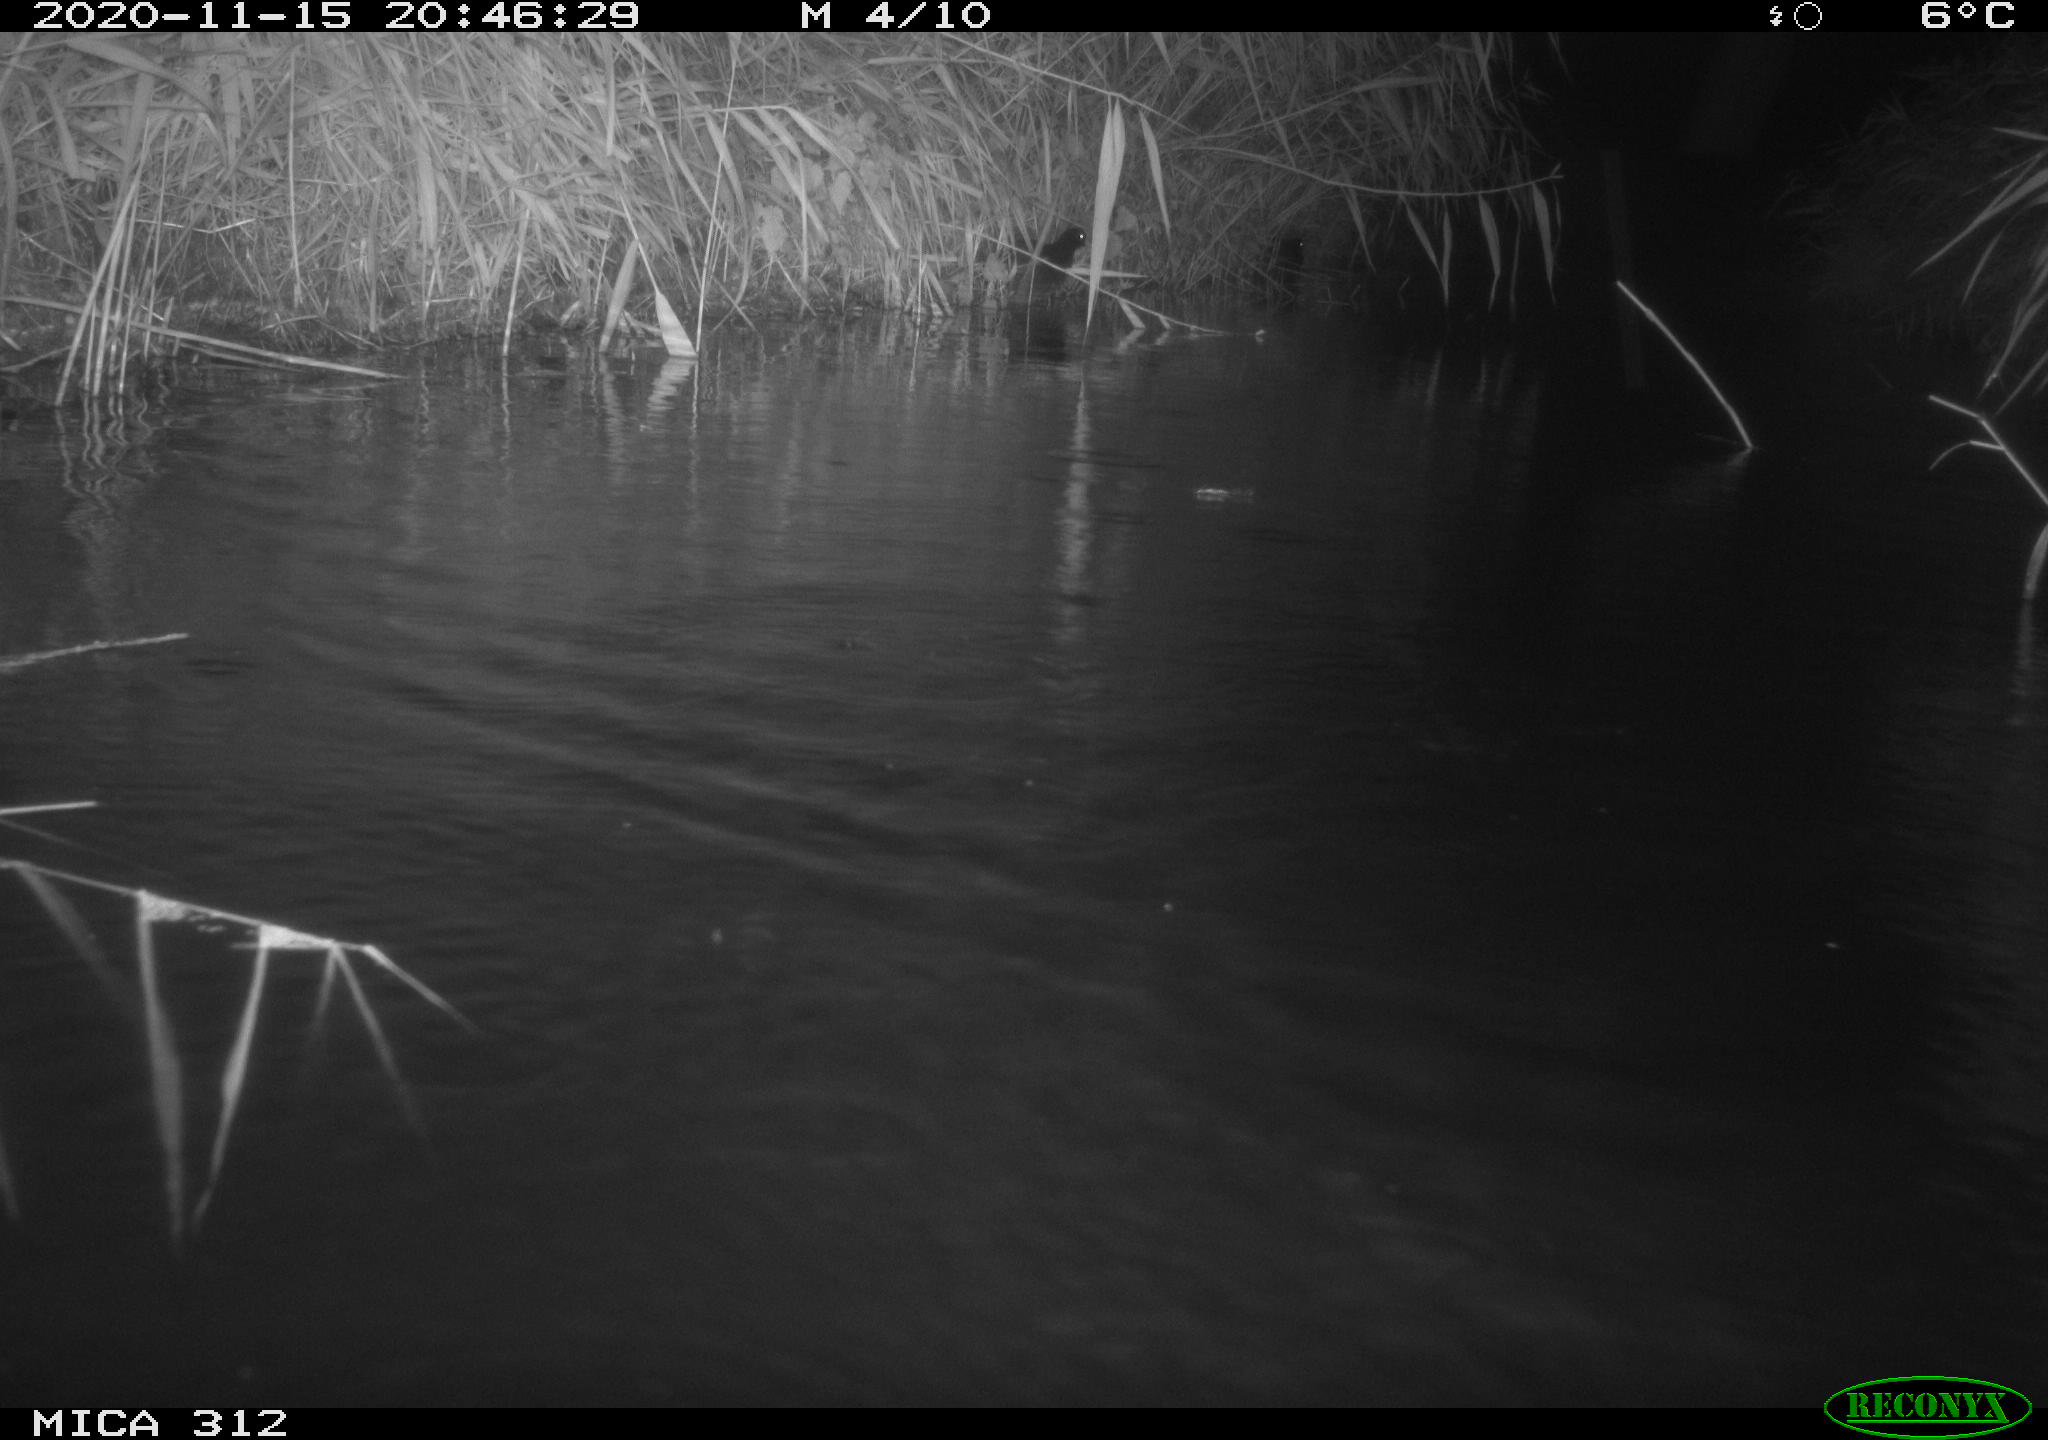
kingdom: Animalia
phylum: Chordata
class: Aves
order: Gruiformes
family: Rallidae
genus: Gallinula
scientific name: Gallinula chloropus
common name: Common moorhen
